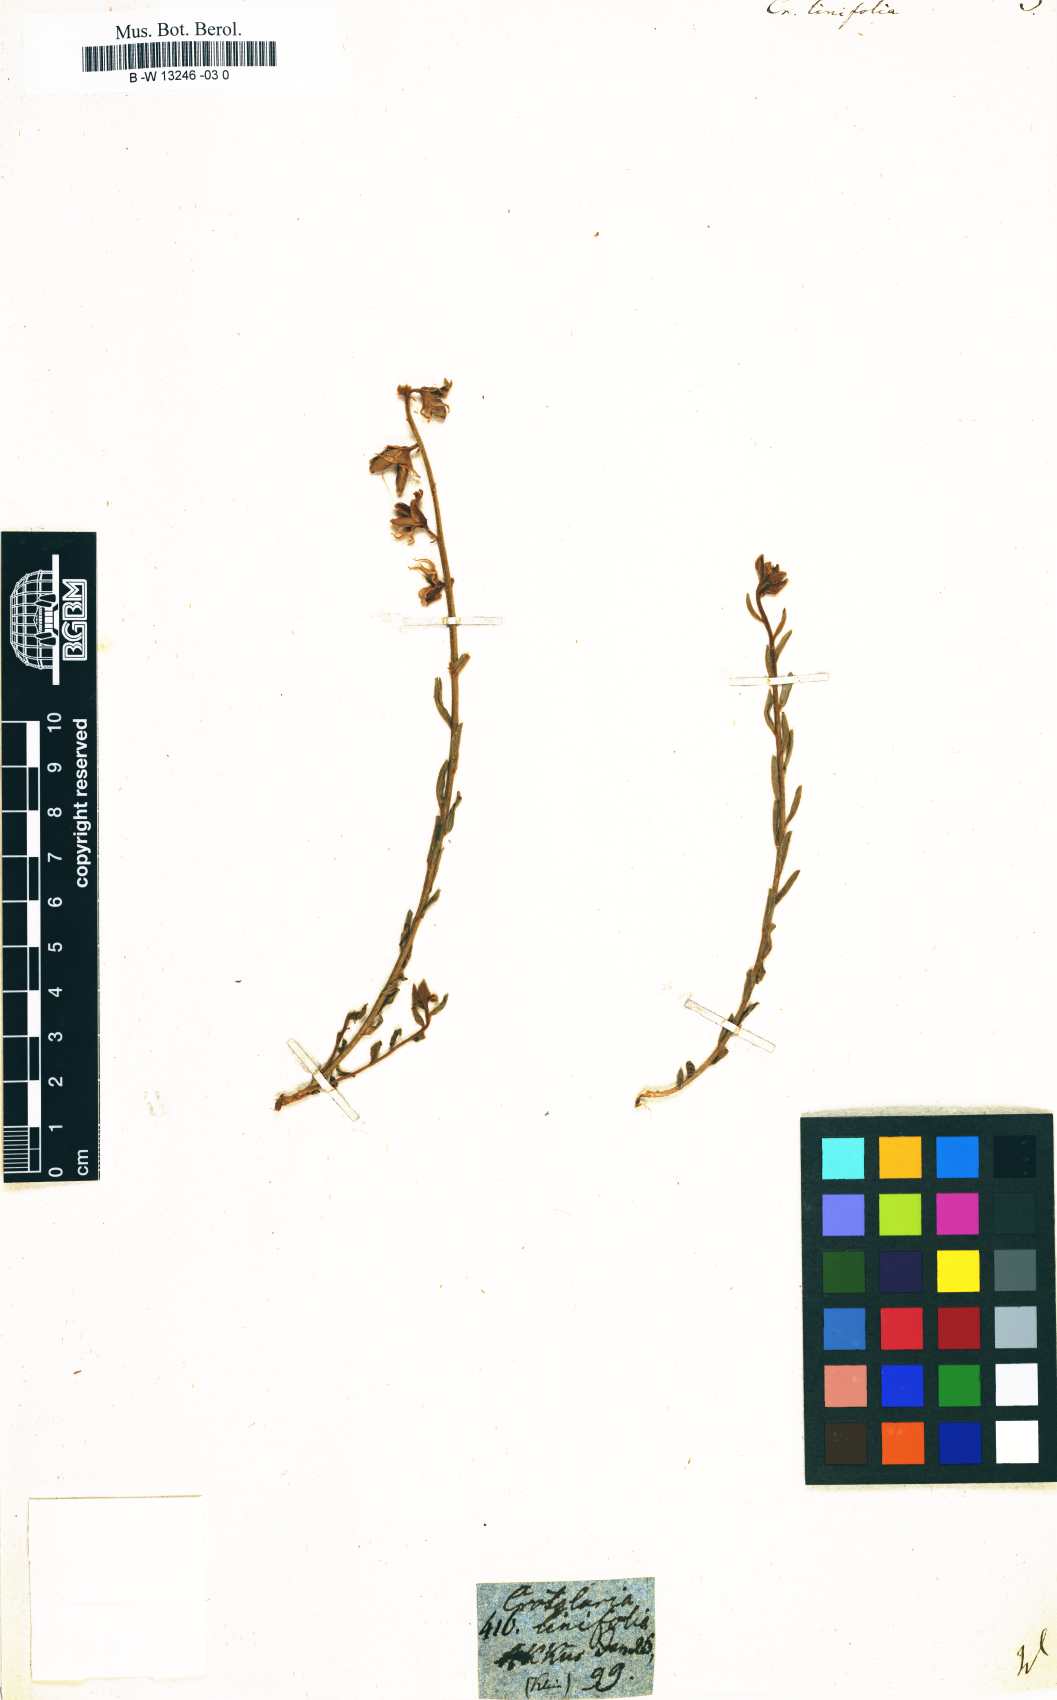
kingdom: Plantae
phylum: Tracheophyta
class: Magnoliopsida
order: Fabales
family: Fabaceae
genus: Crotalaria
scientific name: Crotalaria linifolia
